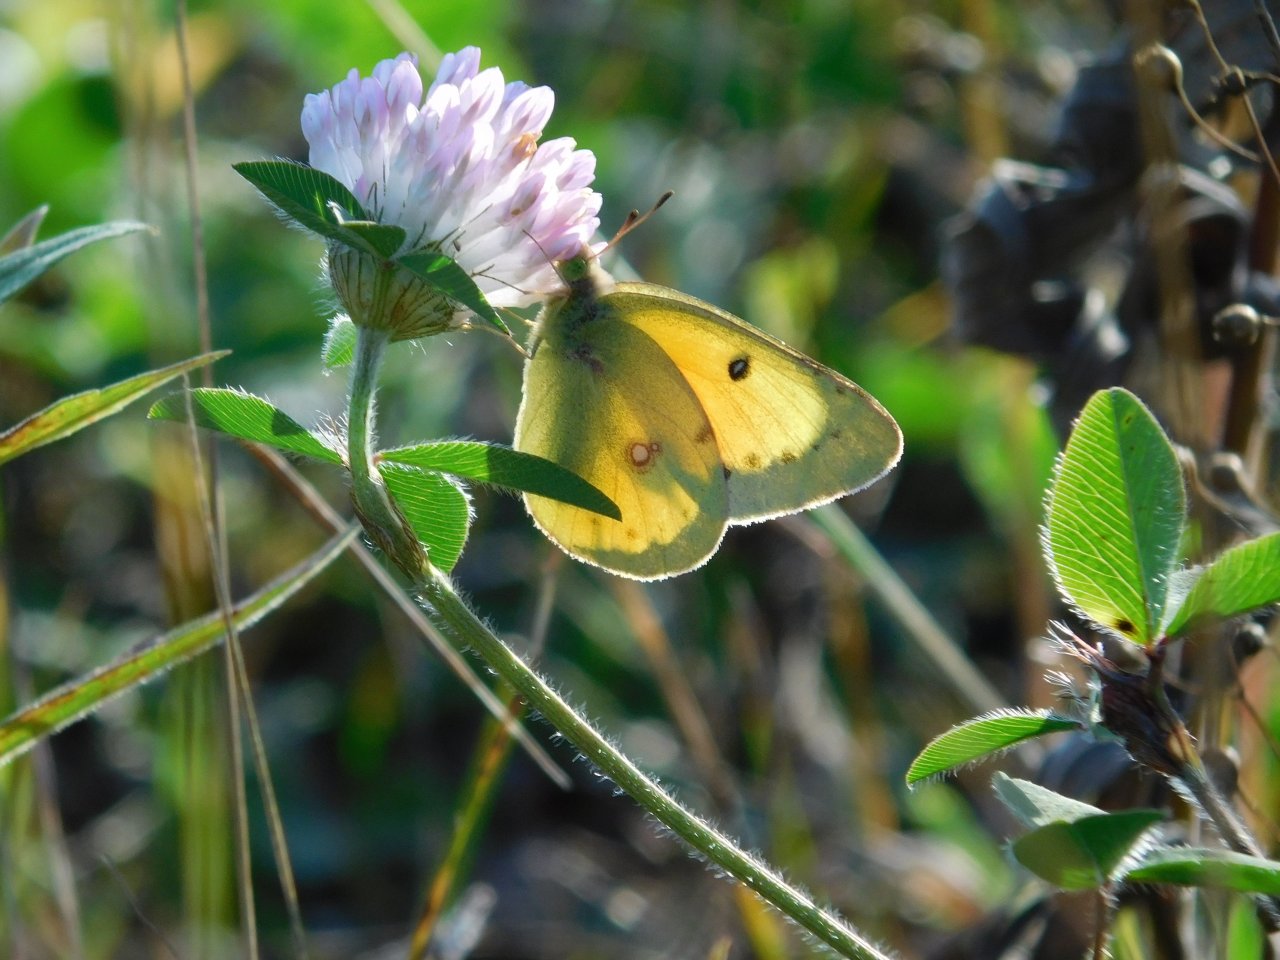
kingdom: Animalia
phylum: Arthropoda
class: Insecta
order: Lepidoptera
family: Pieridae
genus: Colias
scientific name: Colias eurytheme
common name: Orange Sulphur
